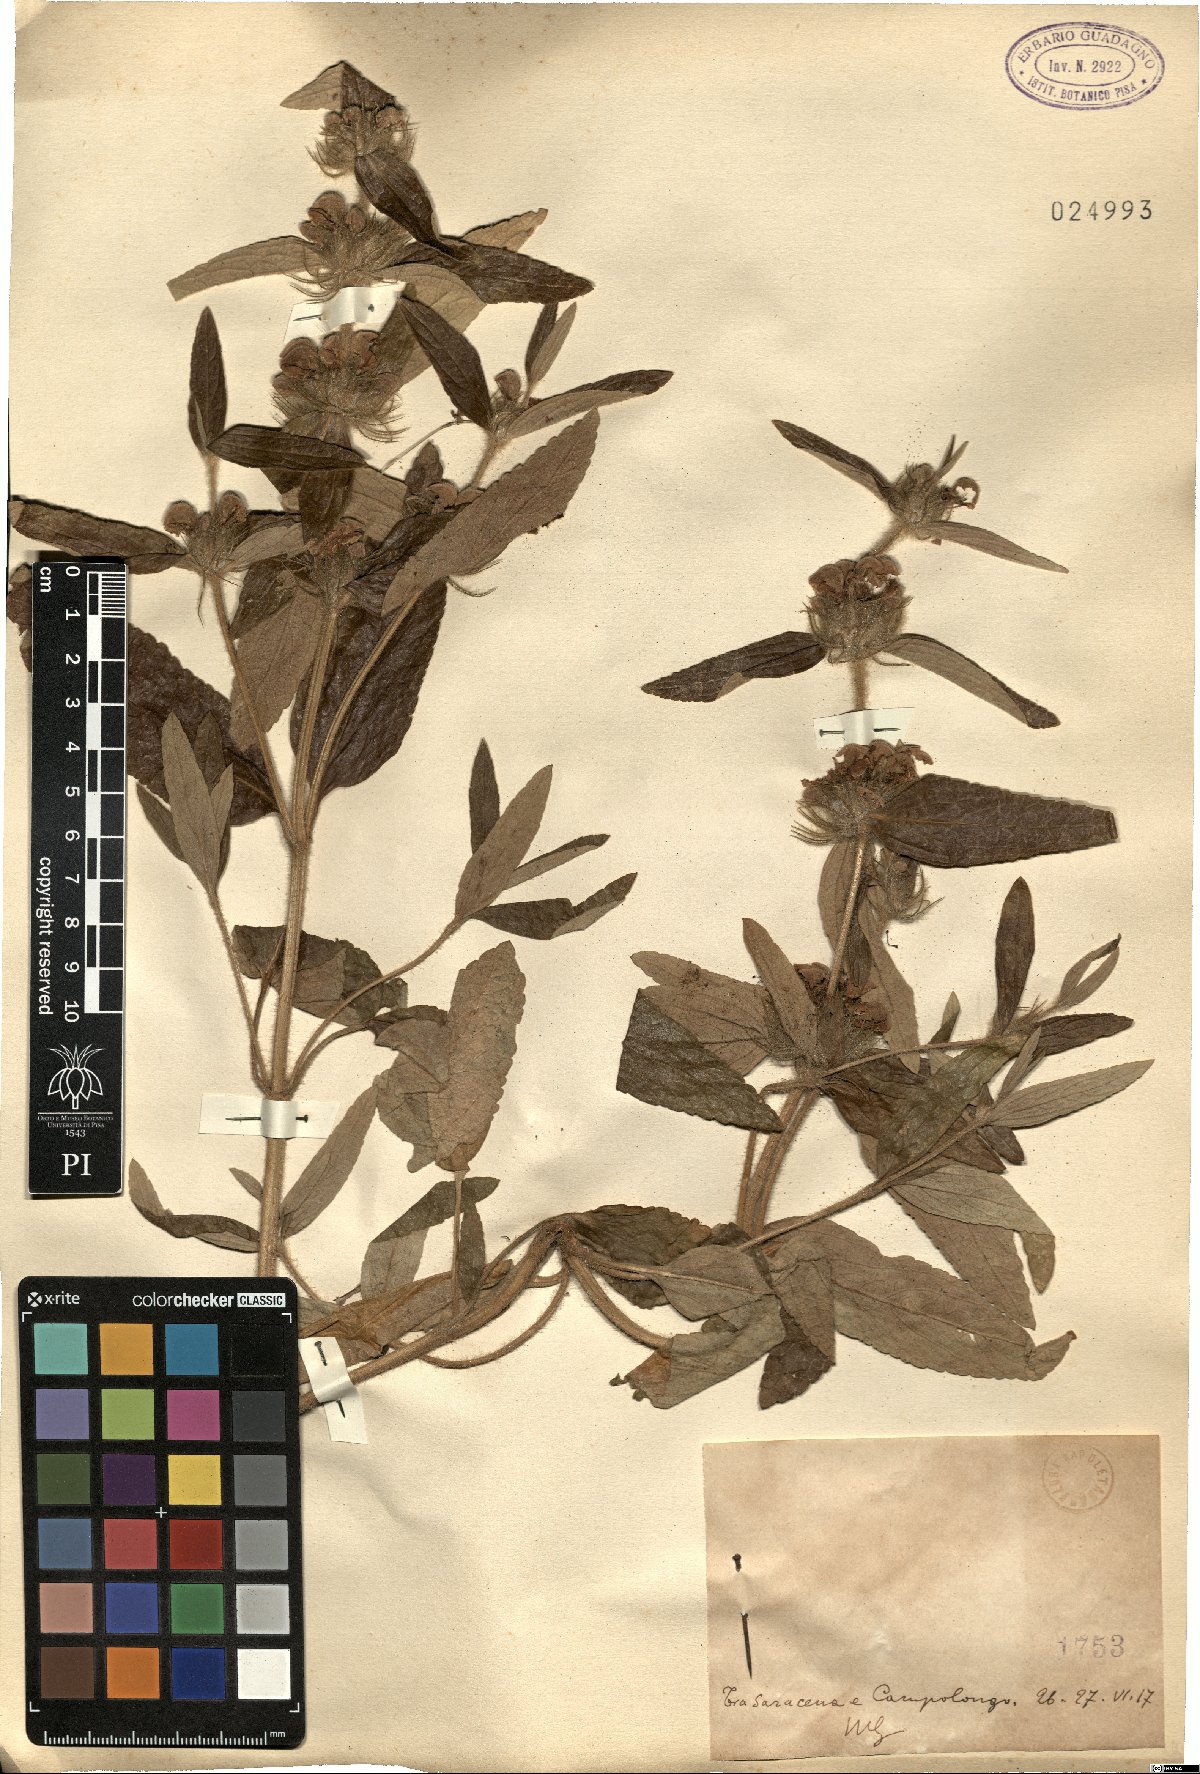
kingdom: Plantae
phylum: Tracheophyta
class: Magnoliopsida
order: Lamiales
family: Lamiaceae
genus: Phlomis
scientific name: Phlomis
